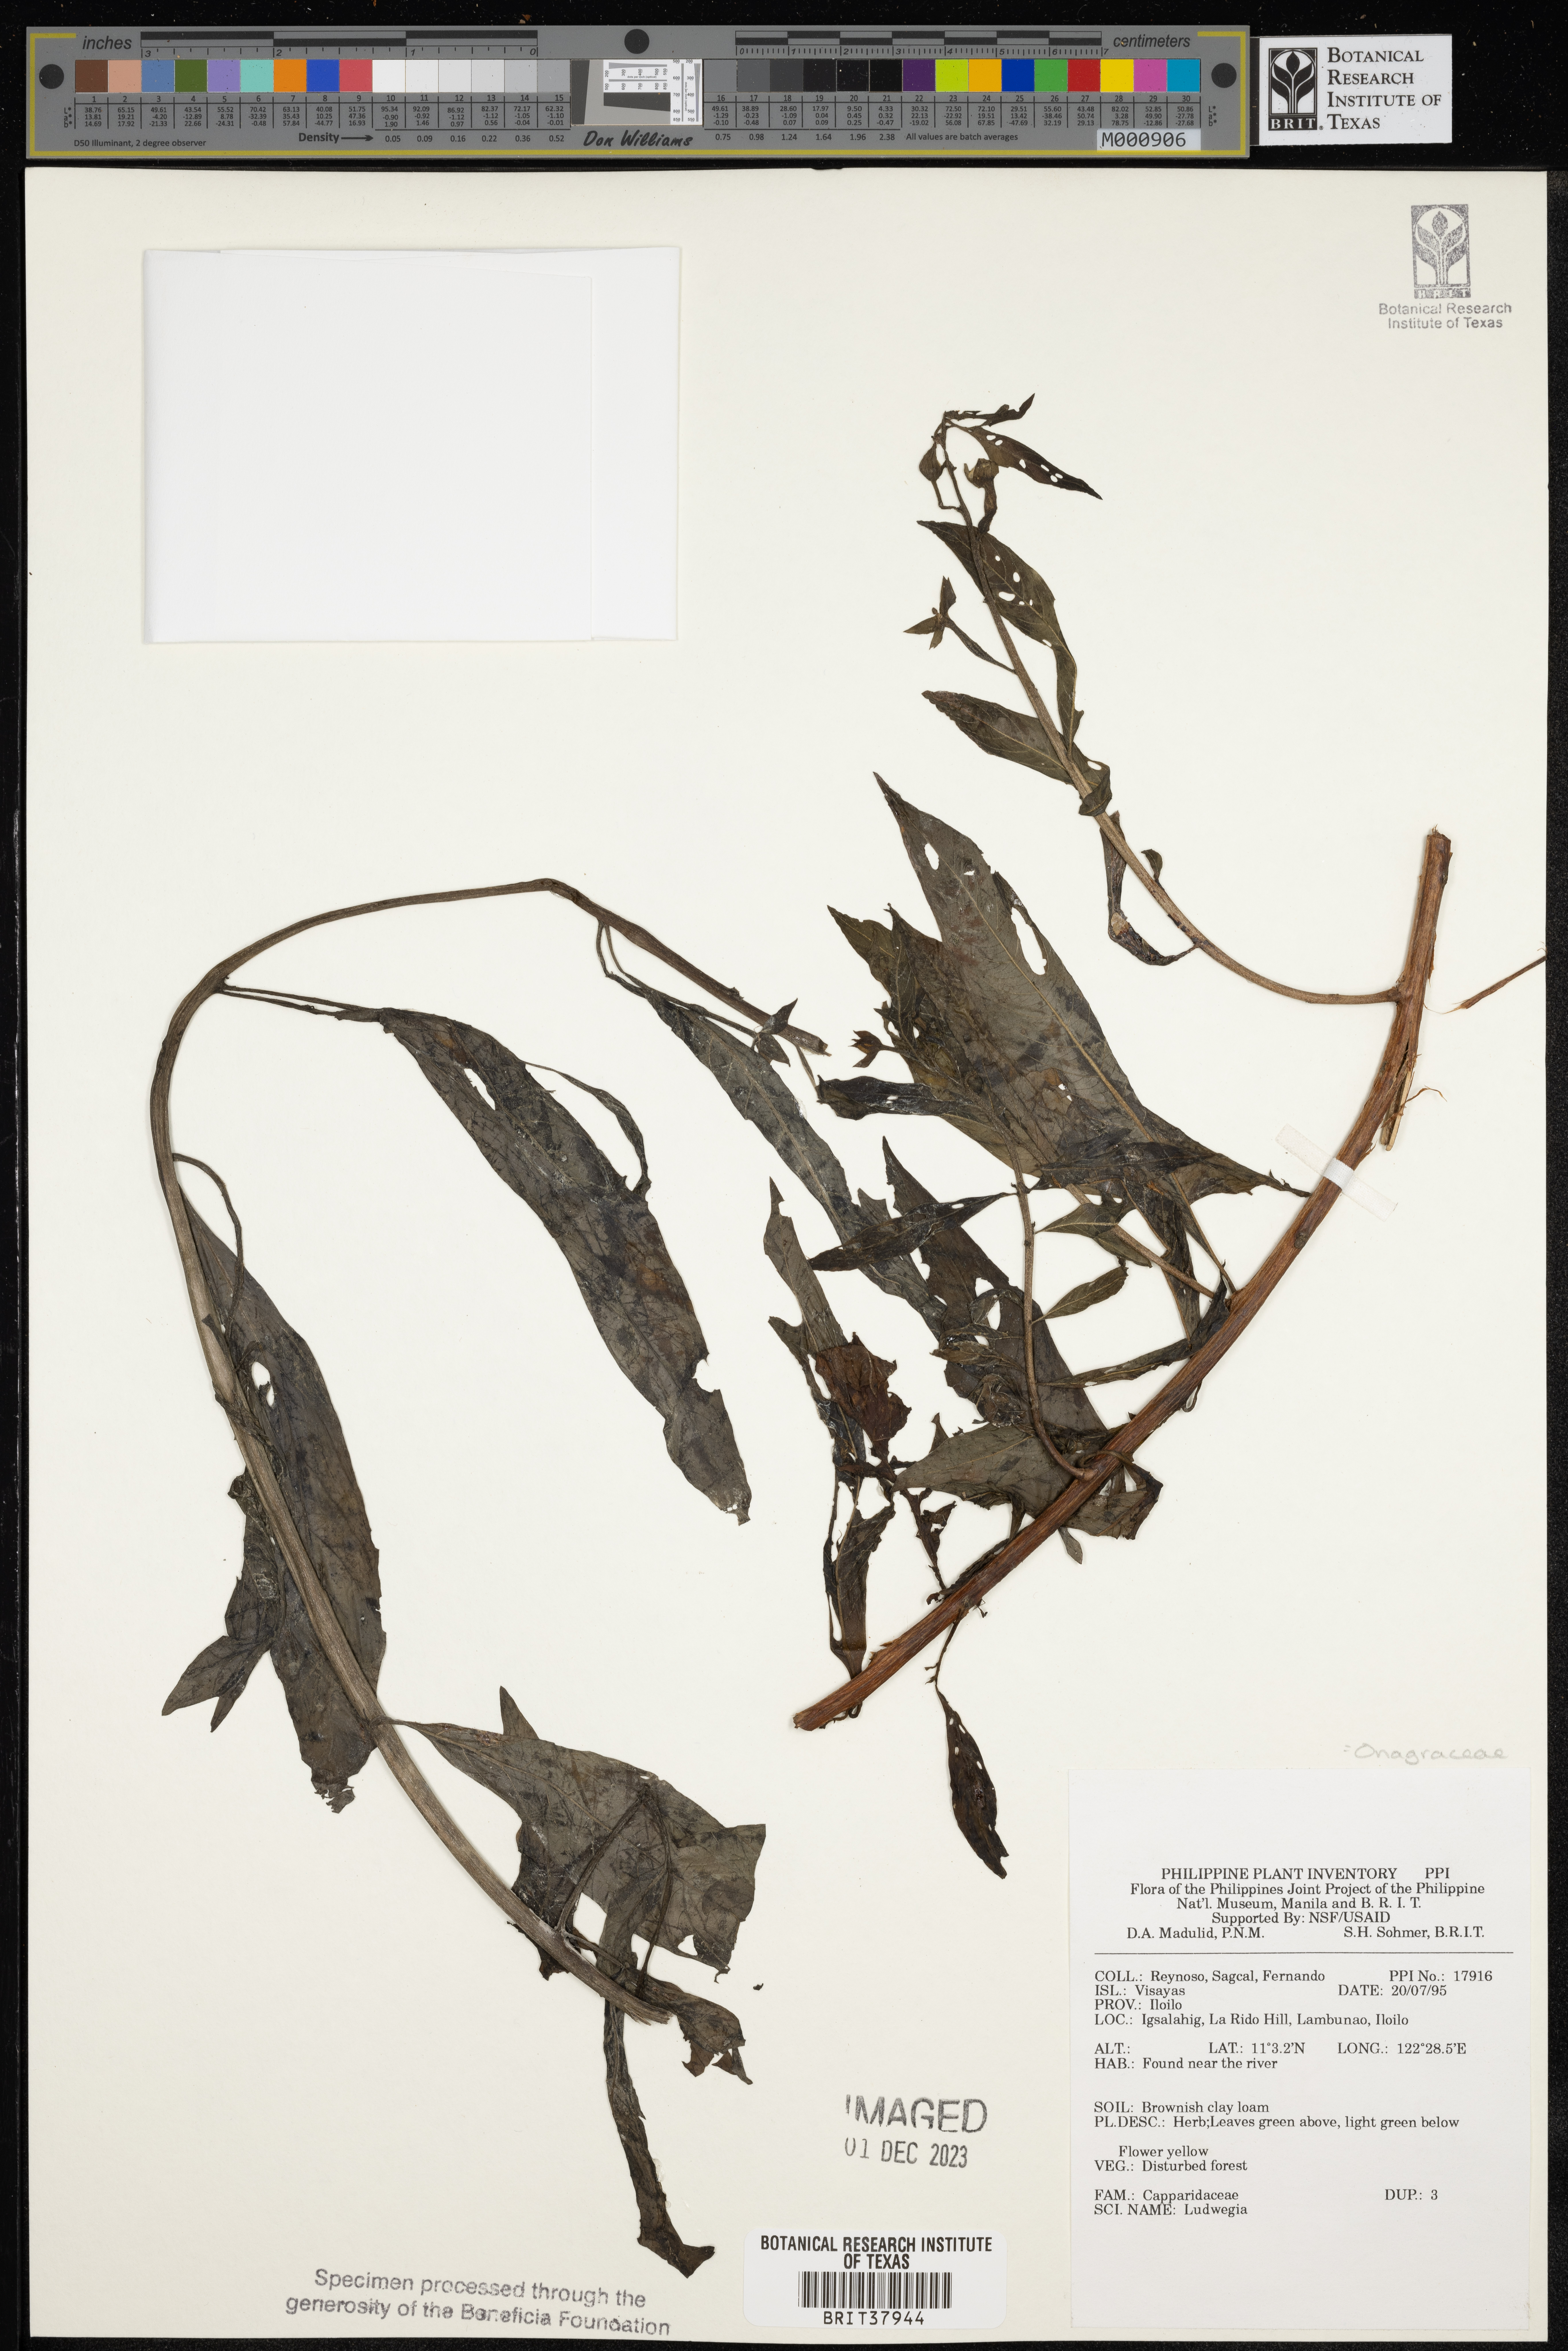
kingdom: Plantae
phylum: Tracheophyta
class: Magnoliopsida
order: Myrtales
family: Onagraceae
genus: Ludwigia
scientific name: Ludwigia
